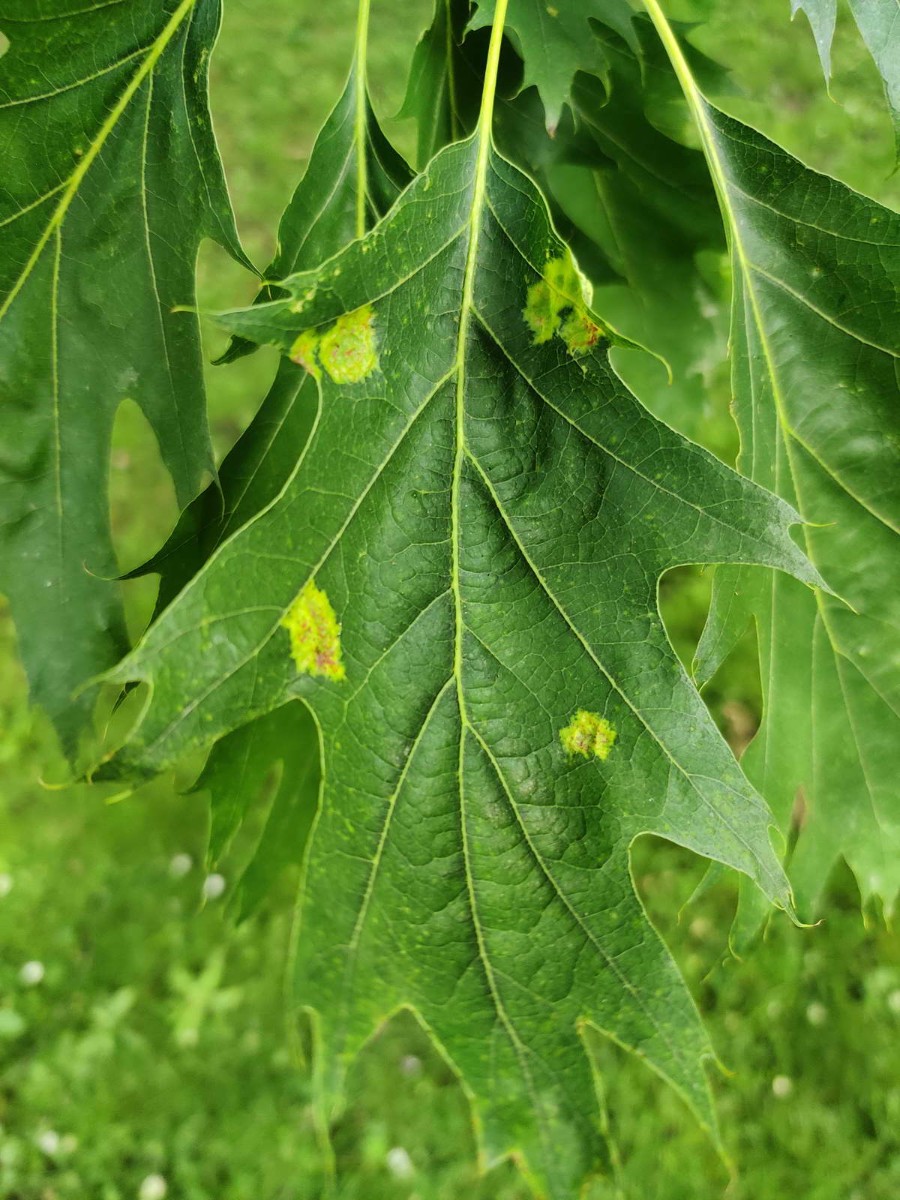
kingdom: Fungi
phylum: Ascomycota
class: Taphrinomycetes
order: Taphrinales
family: Taphrinaceae
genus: Taphrina
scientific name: Taphrina caerulescens
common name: Oak leaf blister
